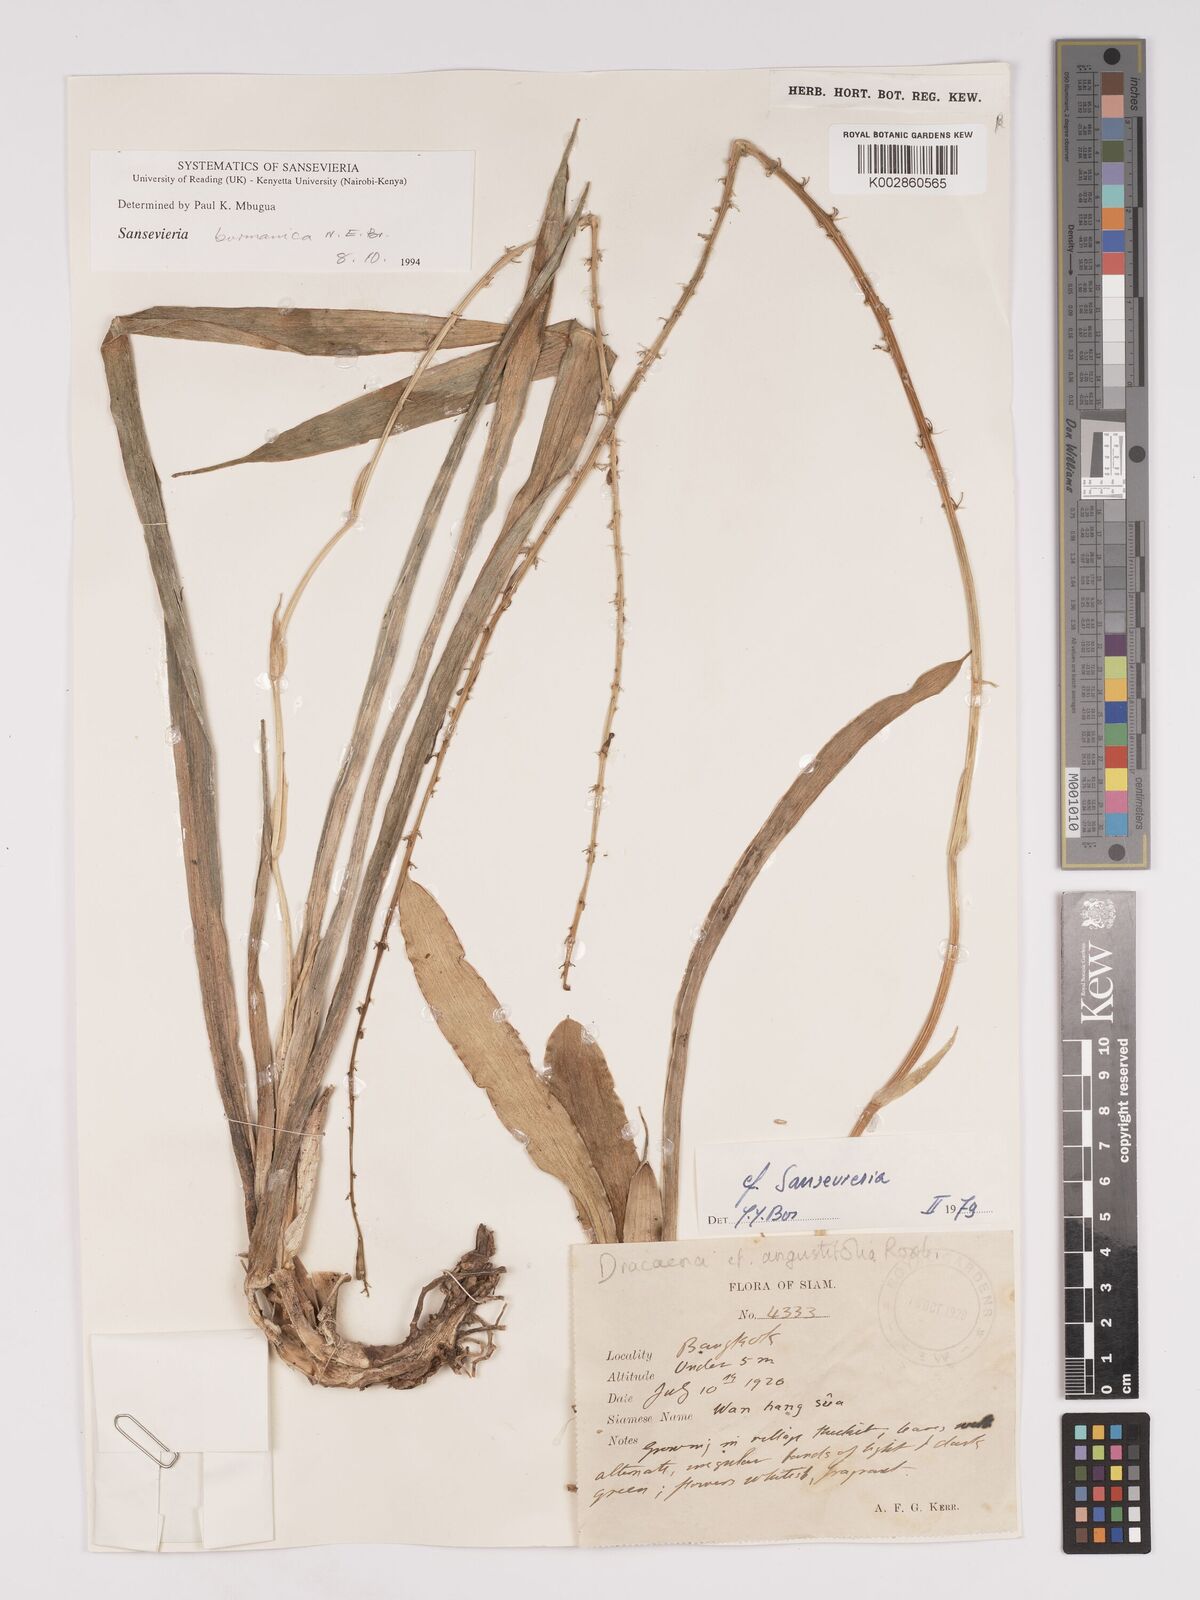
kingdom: Plantae
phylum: Tracheophyta
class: Liliopsida
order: Asparagales
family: Asparagaceae
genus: Dracaena
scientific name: Dracaena
